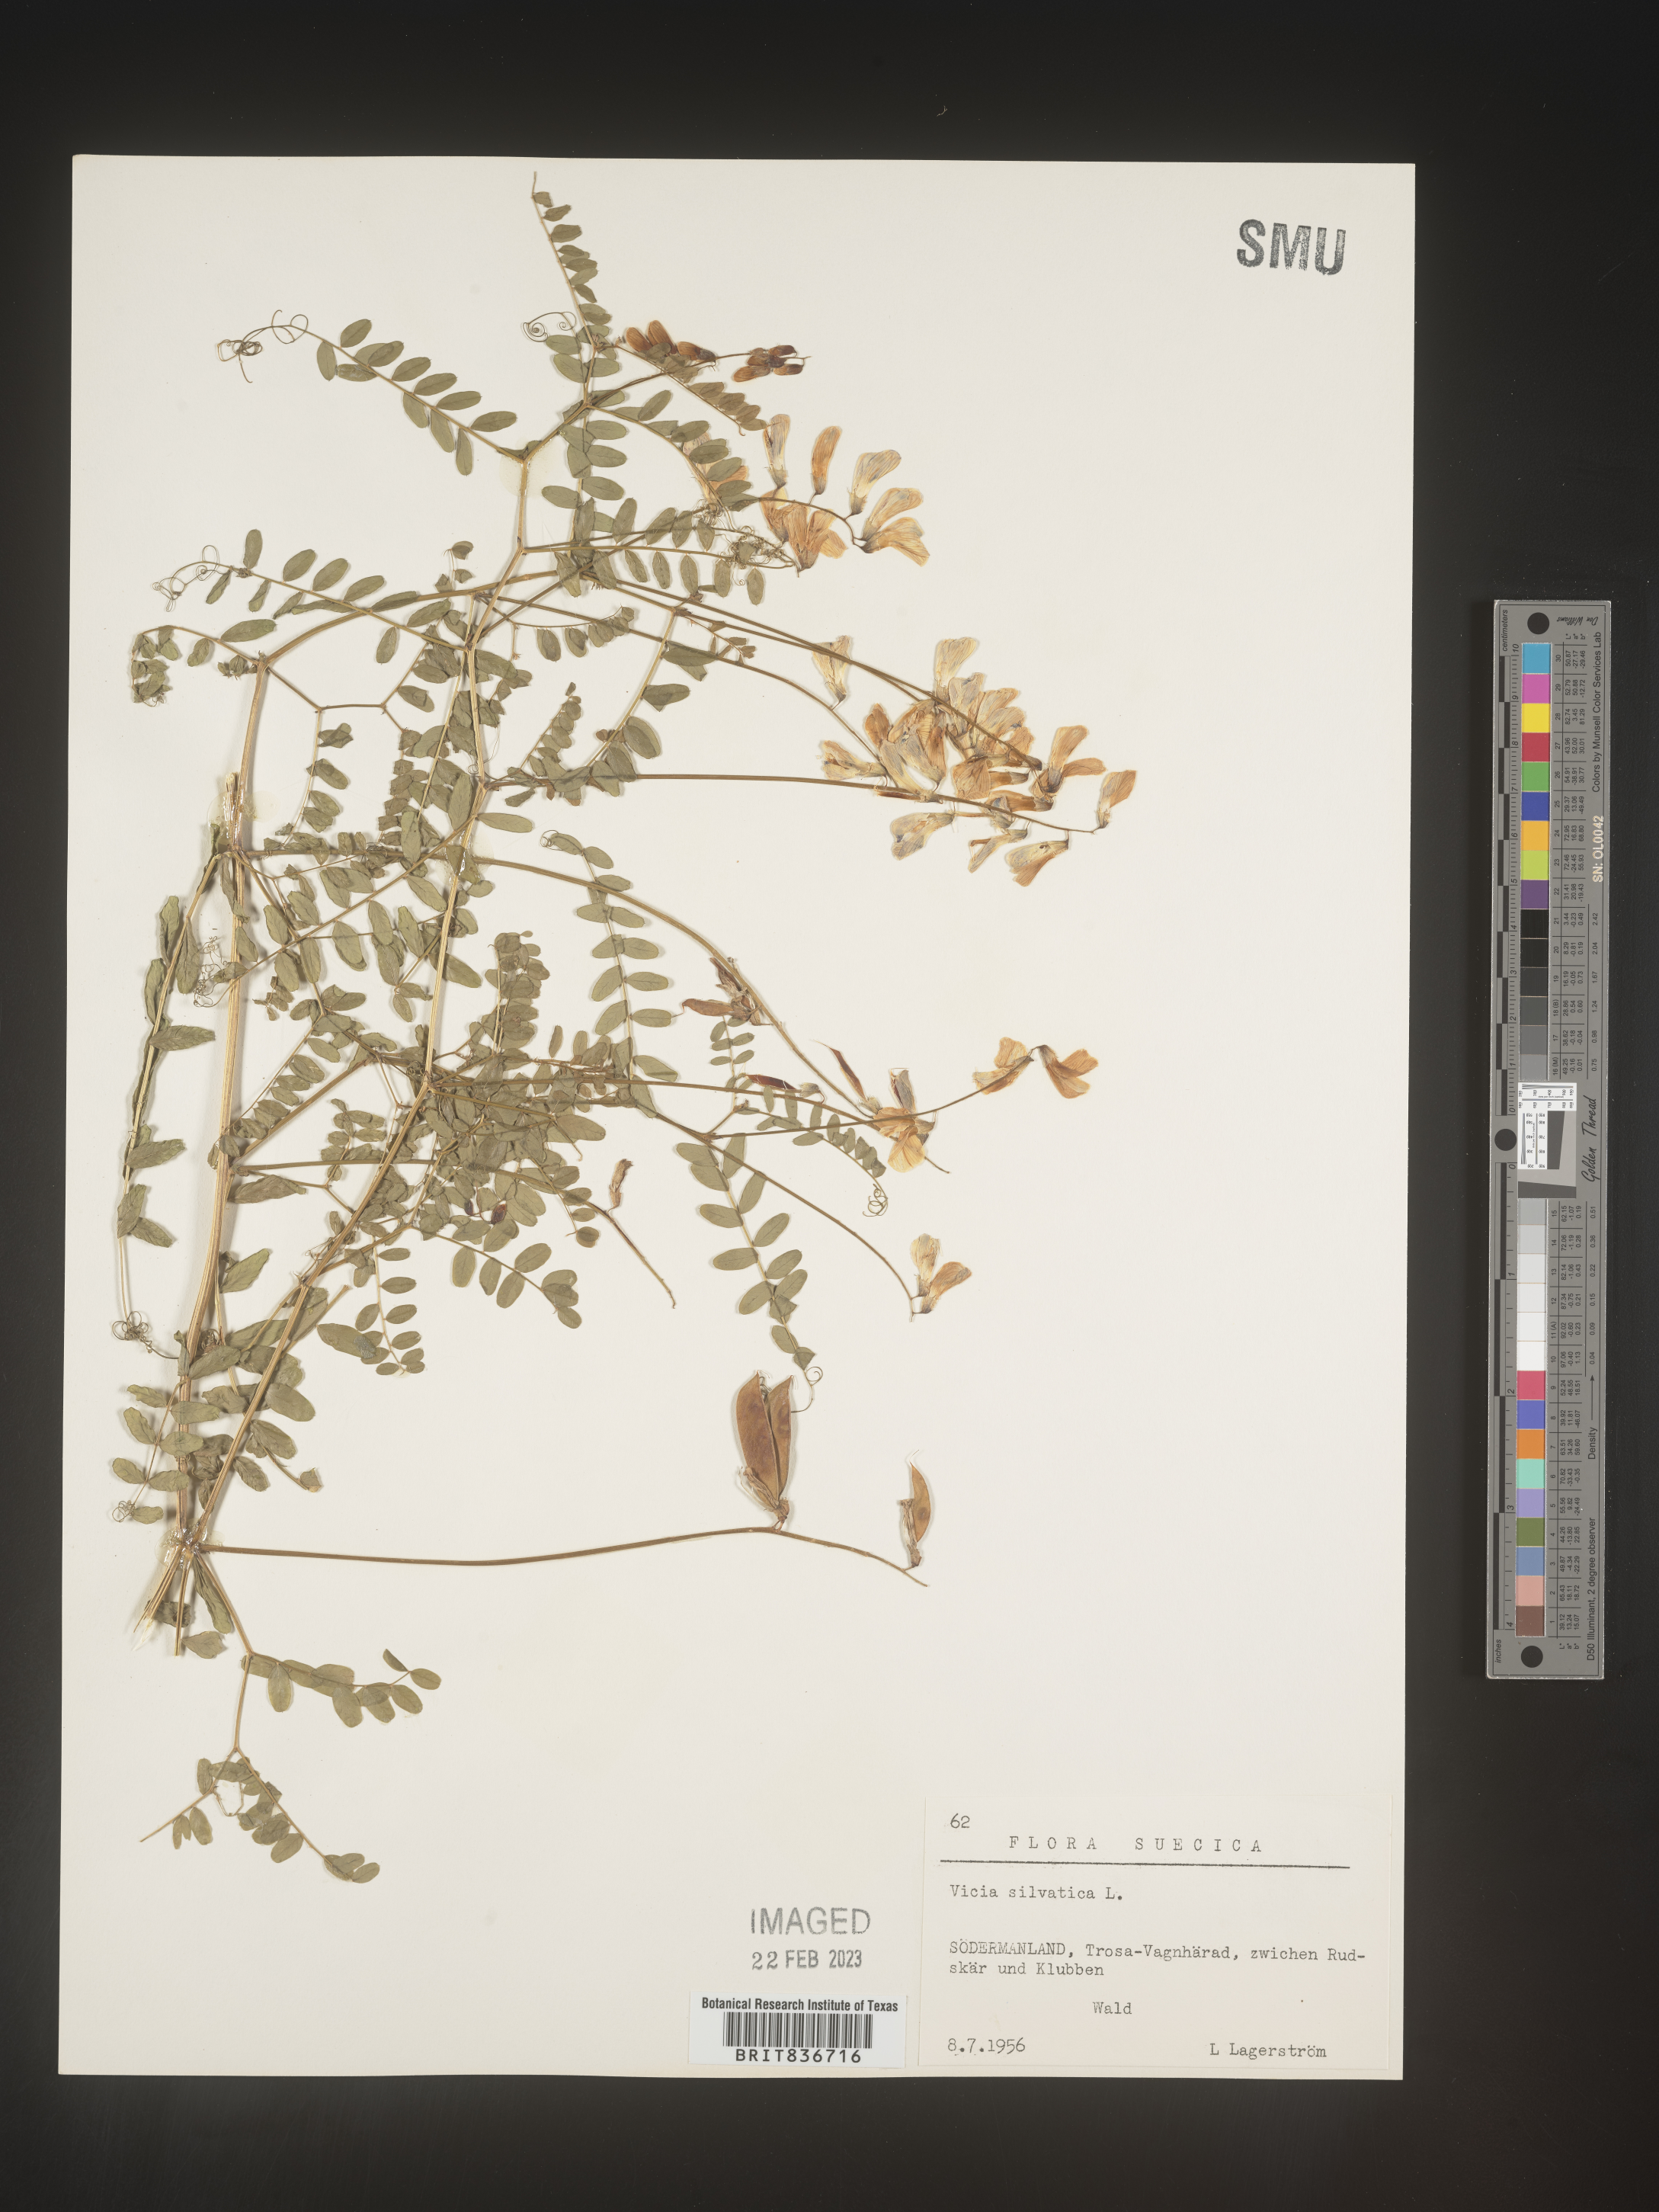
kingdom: Plantae
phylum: Tracheophyta
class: Magnoliopsida
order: Fabales
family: Fabaceae
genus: Vicia
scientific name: Vicia sylvatica
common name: Wood vetch
